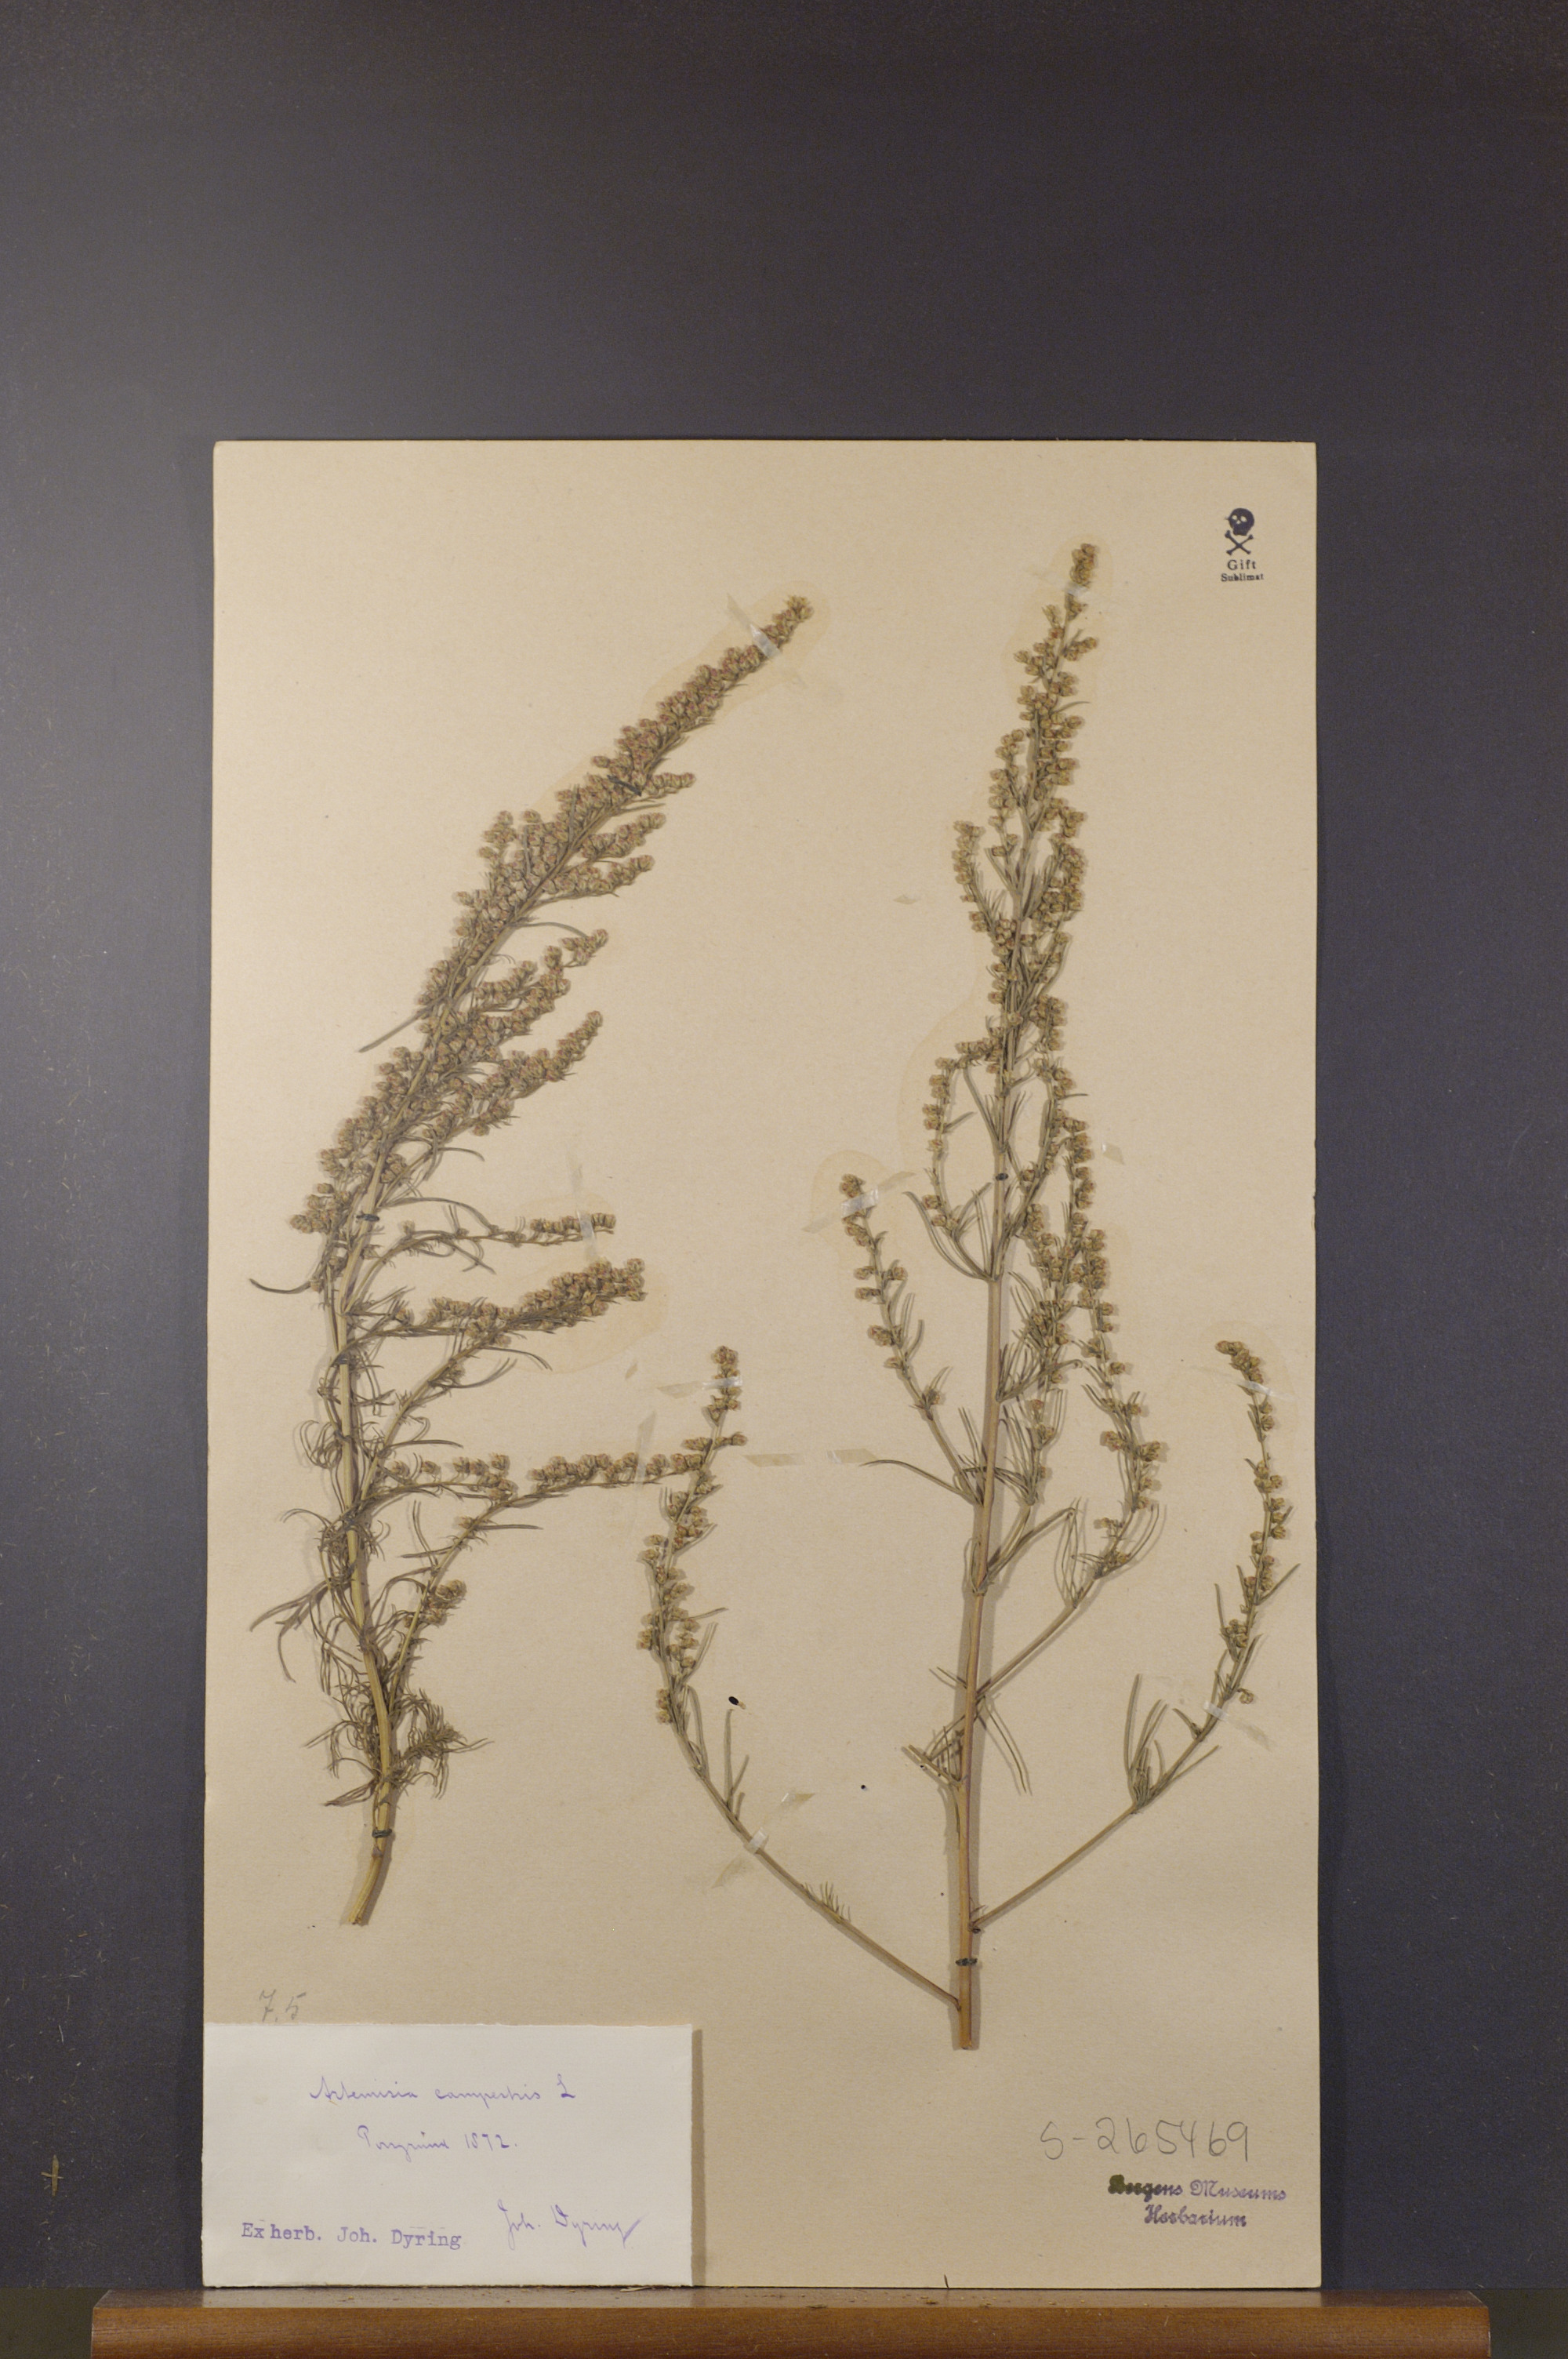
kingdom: Plantae
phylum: Tracheophyta
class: Magnoliopsida
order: Asterales
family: Asteraceae
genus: Artemisia
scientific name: Artemisia campestris
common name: Field wormwood
